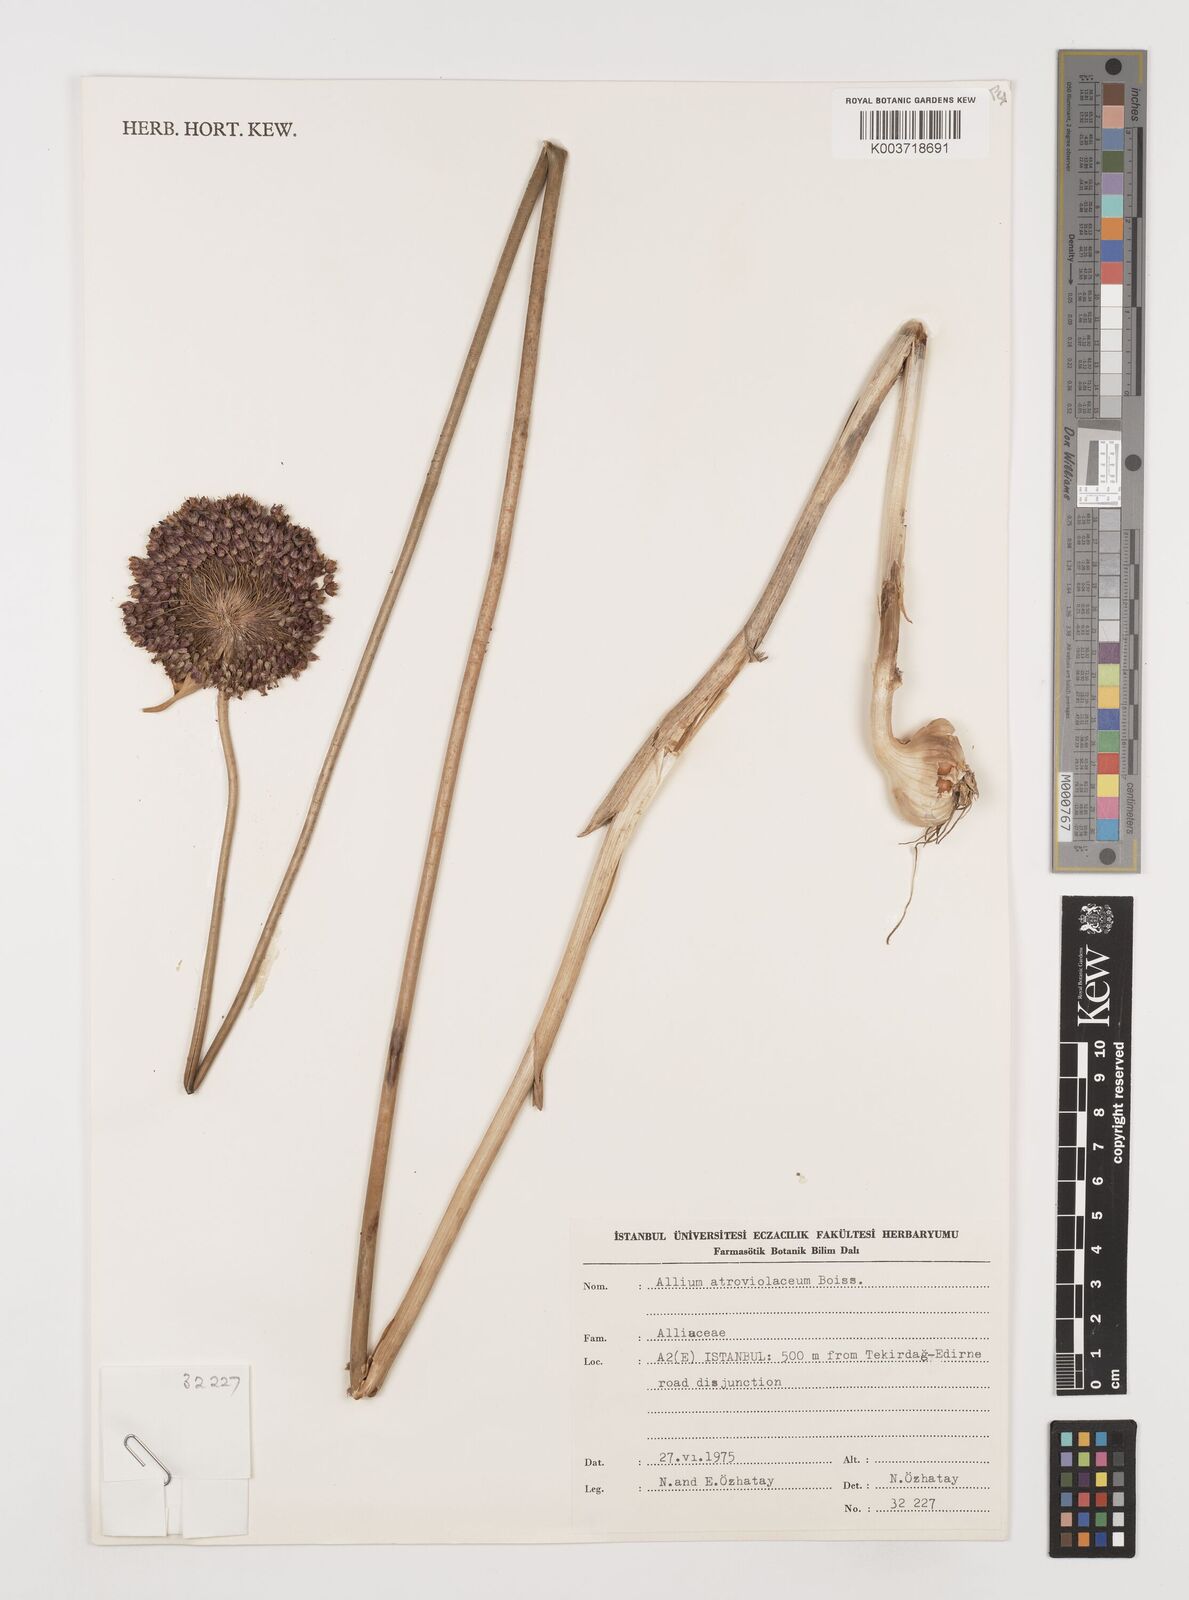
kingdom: Plantae
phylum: Tracheophyta
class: Liliopsida
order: Asparagales
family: Amaryllidaceae
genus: Allium
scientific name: Allium atroviolaceum
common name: Broadleaf wild leek
